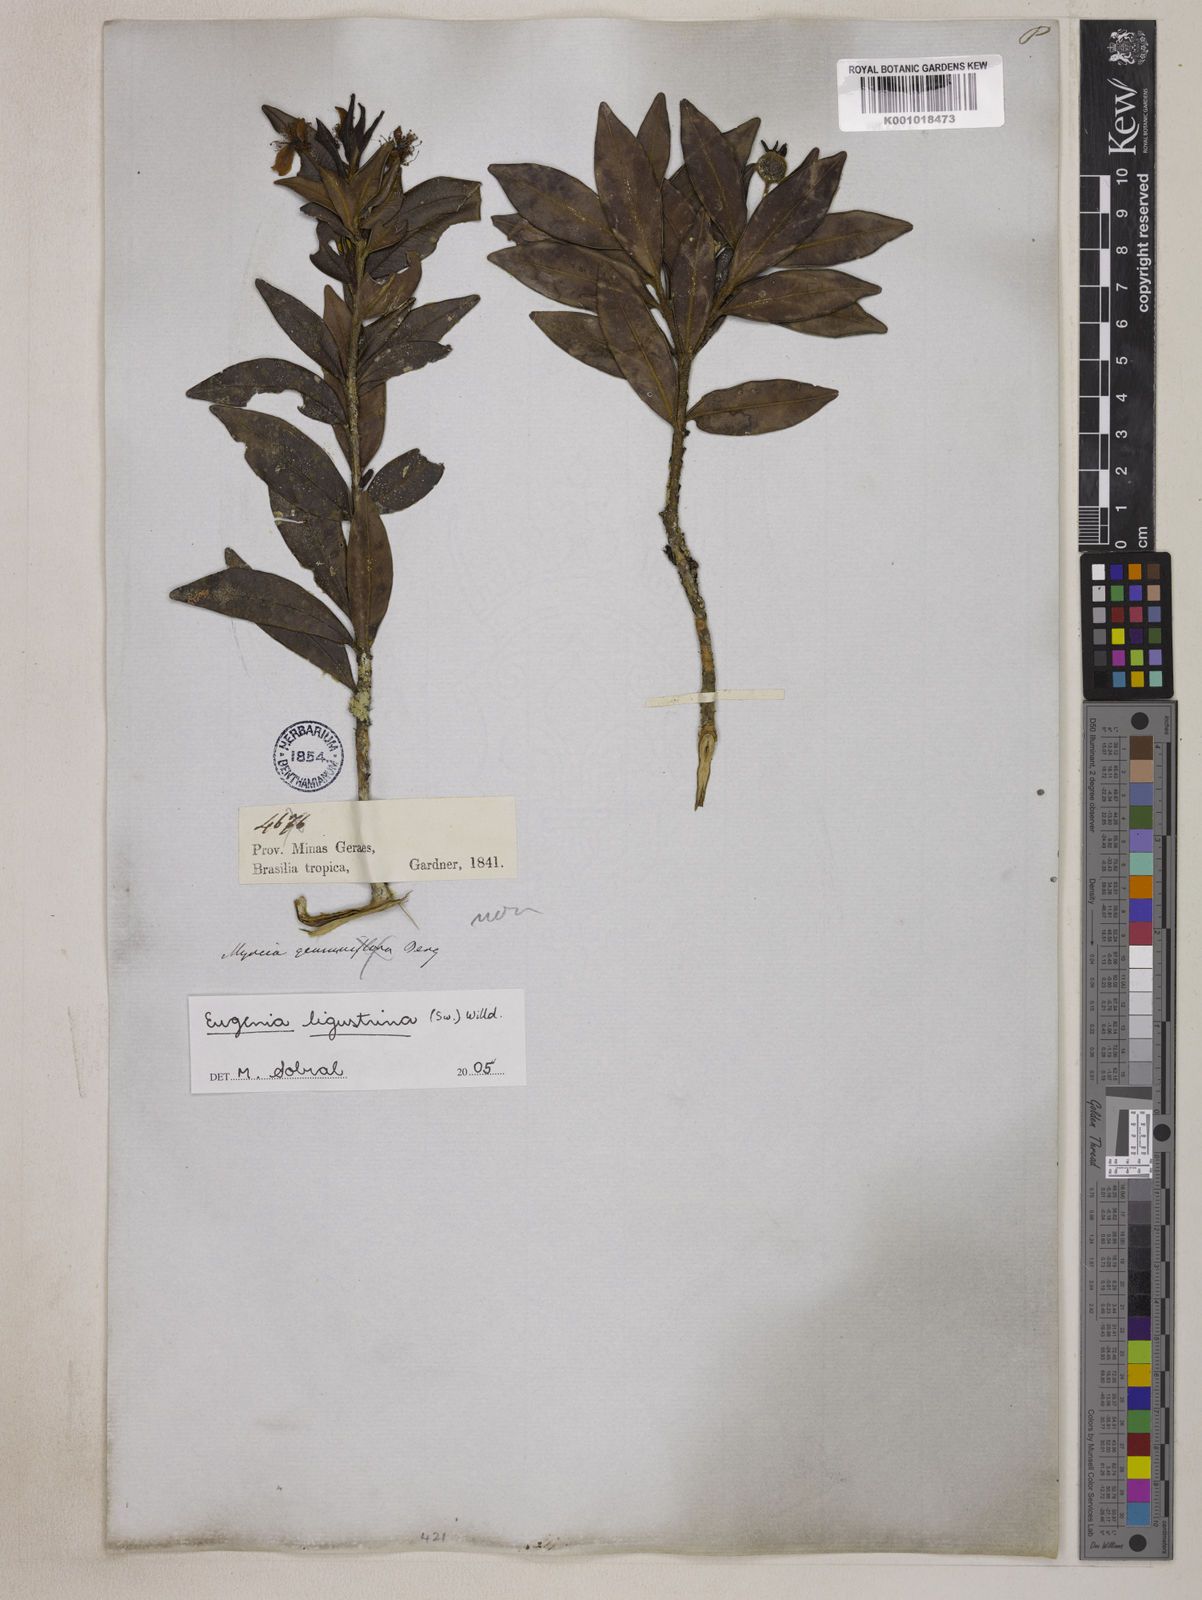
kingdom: Plantae
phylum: Tracheophyta
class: Magnoliopsida
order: Myrtales
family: Myrtaceae
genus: Eugenia
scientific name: Eugenia ligustrina
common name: Privet stopper
